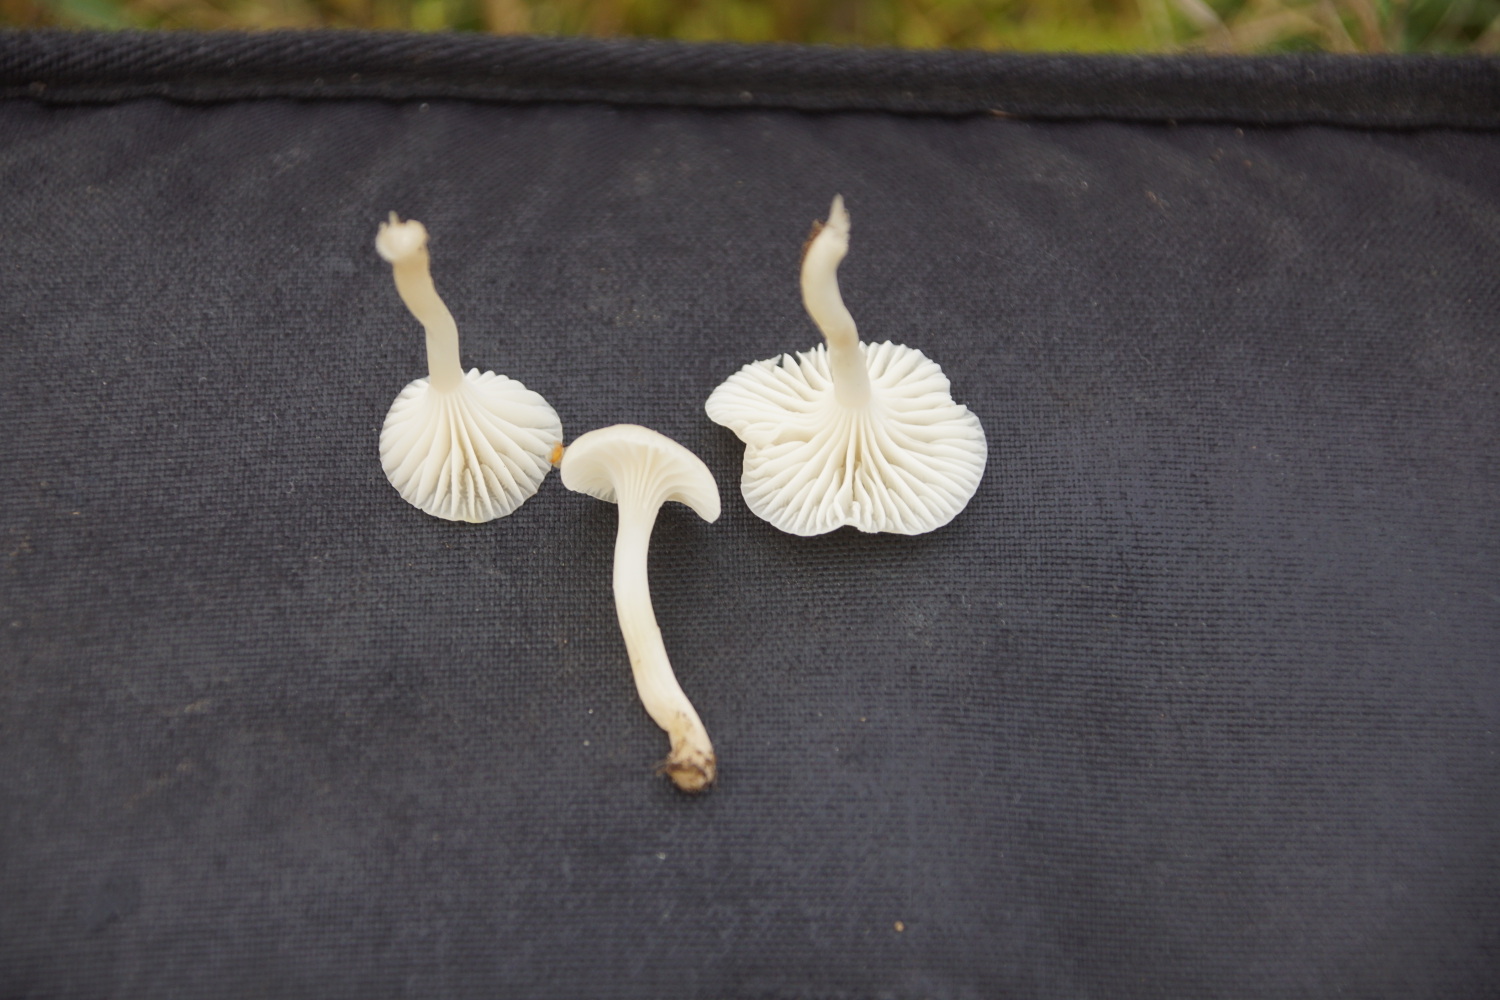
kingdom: Fungi
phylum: Basidiomycota
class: Agaricomycetes
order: Agaricales
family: Hygrophoraceae
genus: Cuphophyllus
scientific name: Cuphophyllus virgineus
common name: snehvid vokshat
